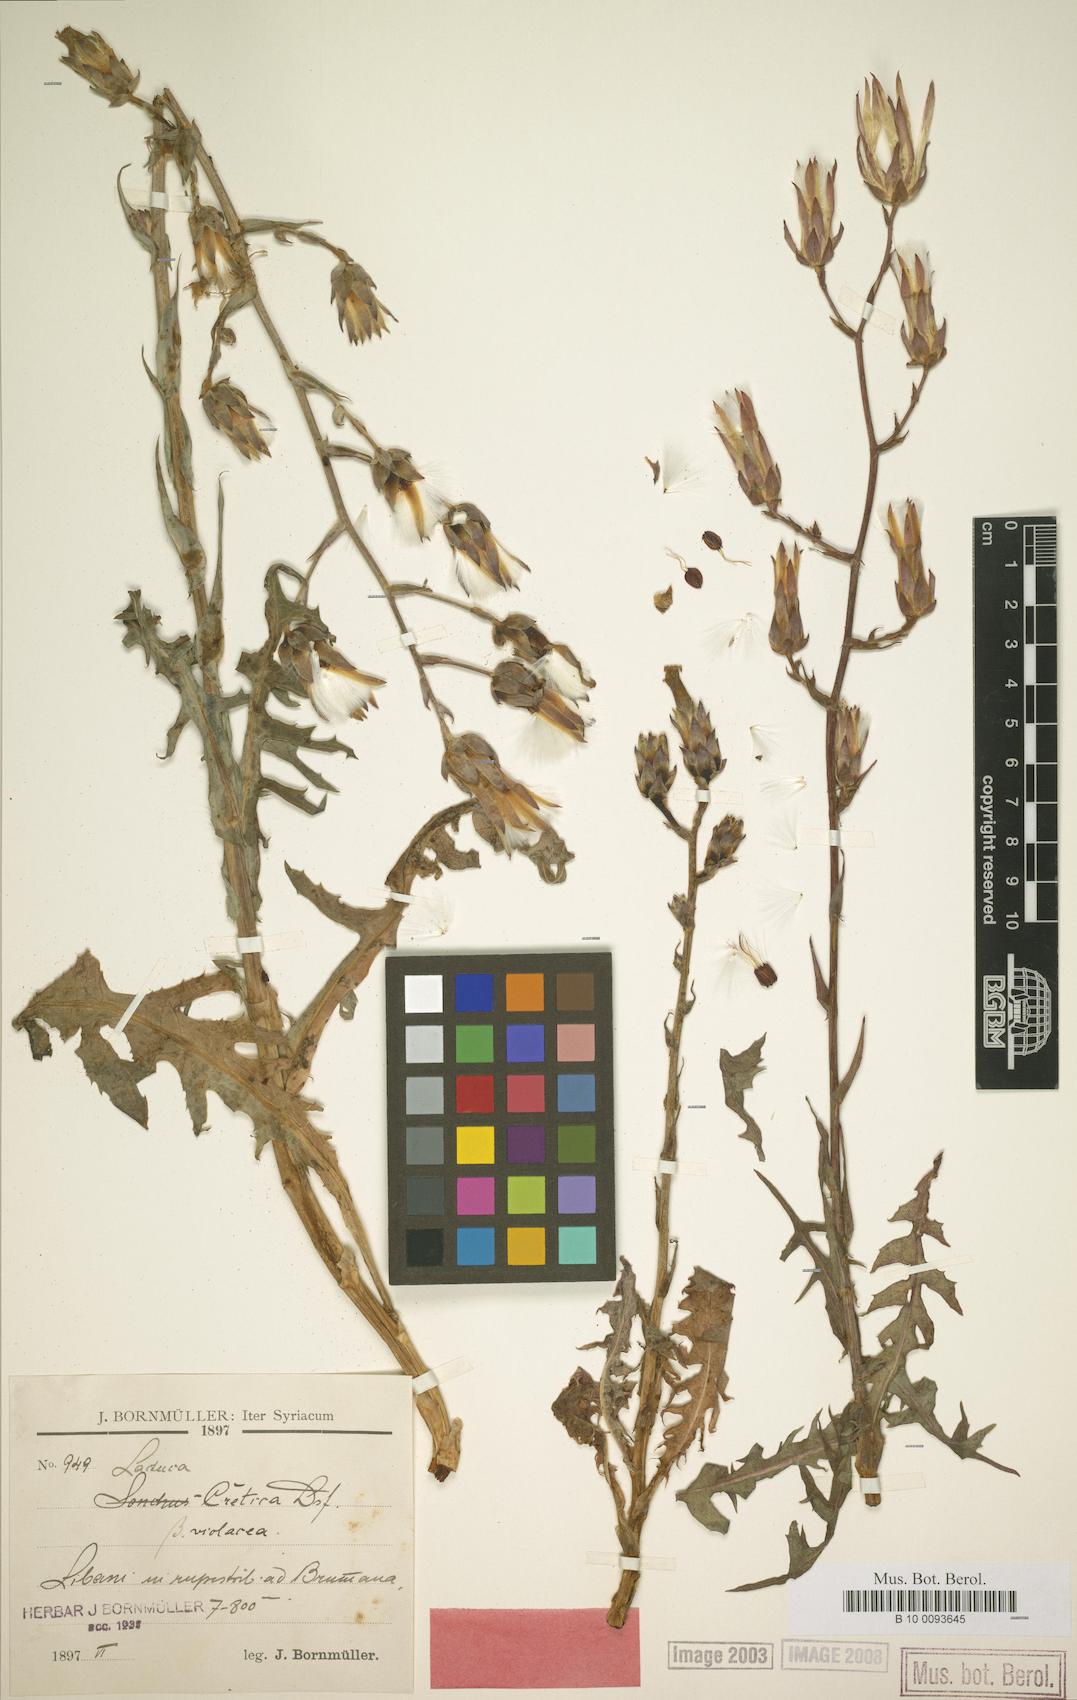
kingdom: Plantae
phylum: Tracheophyta
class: Magnoliopsida
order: Asterales
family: Asteraceae
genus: Lactuca
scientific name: Lactuca tuberosa
